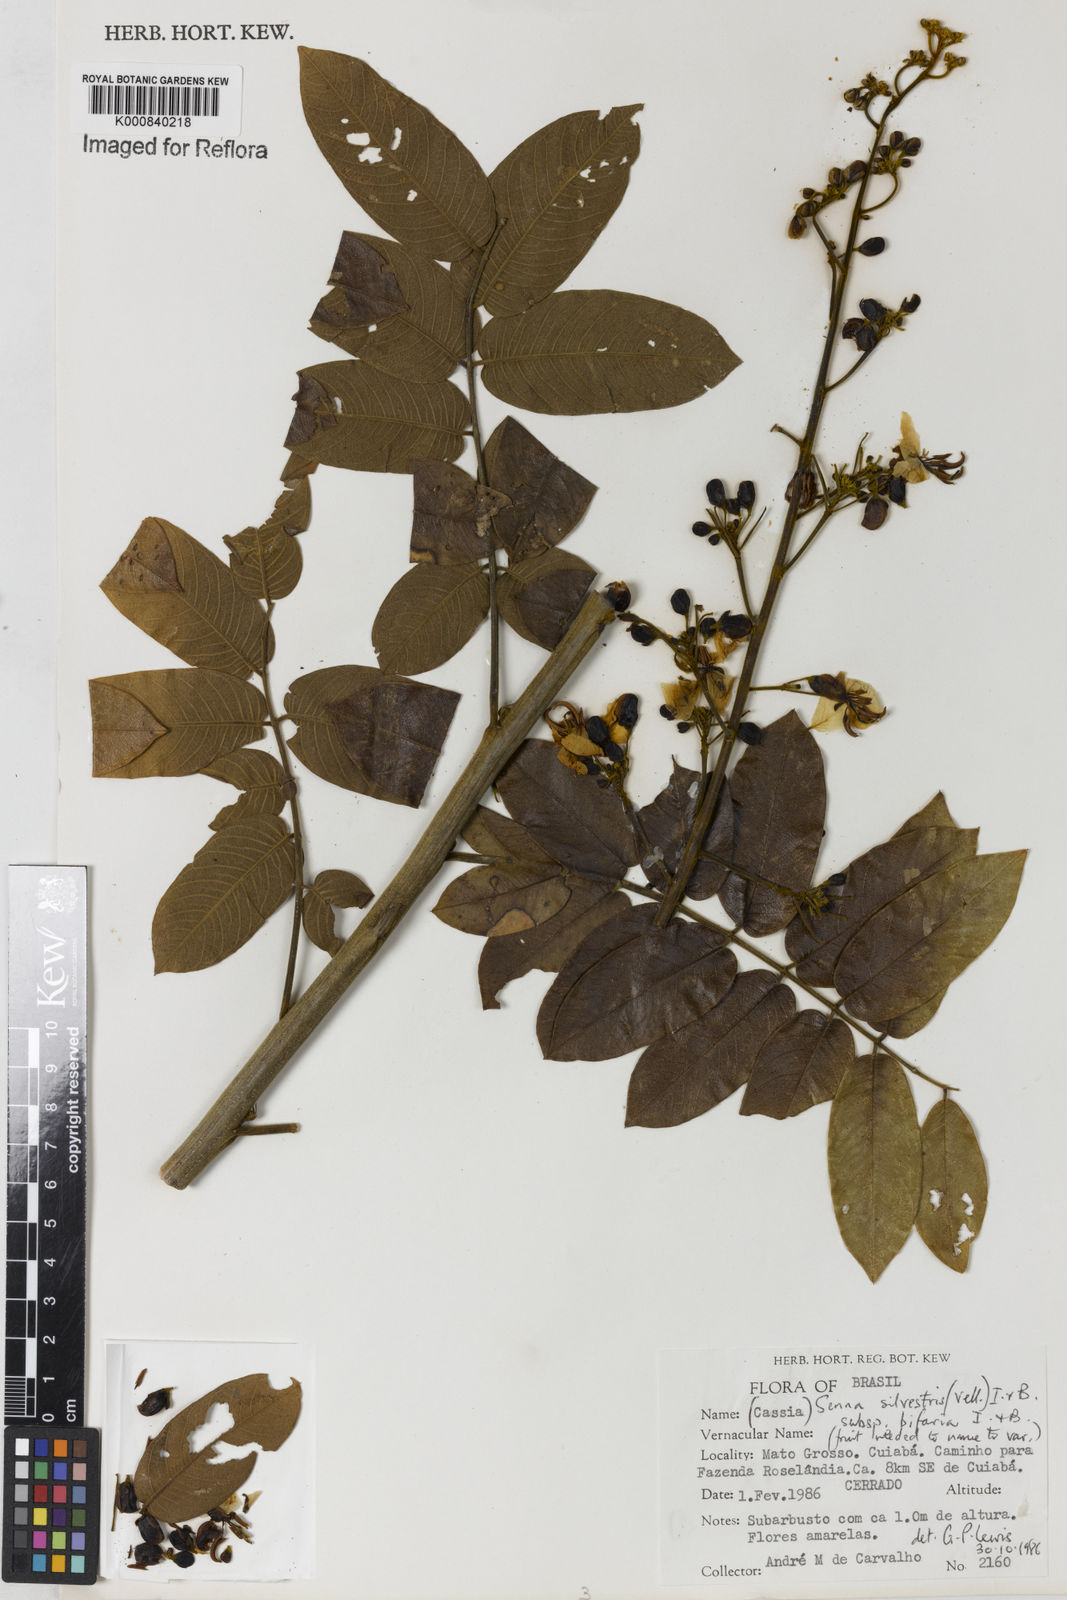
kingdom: Plantae
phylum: Tracheophyta
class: Magnoliopsida
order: Fabales
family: Fabaceae
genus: Senna
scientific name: Senna silvestris
